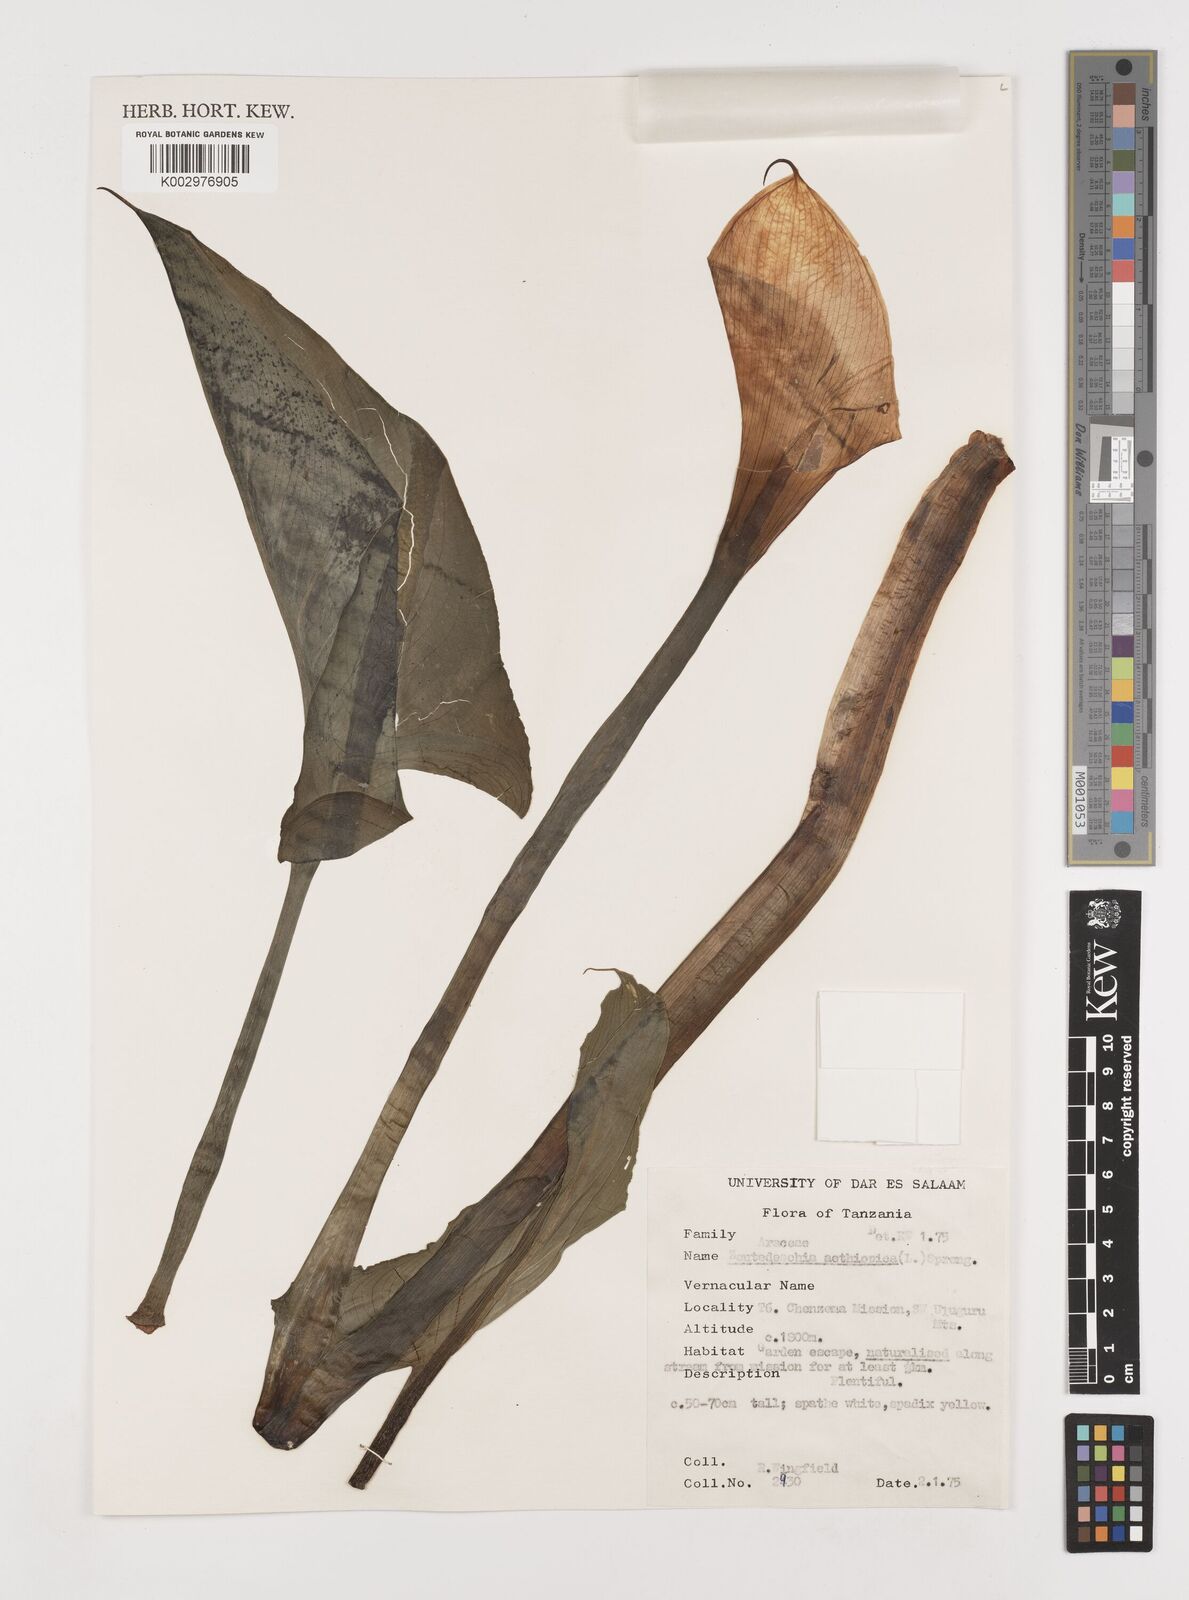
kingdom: Plantae
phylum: Tracheophyta
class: Liliopsida
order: Alismatales
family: Araceae
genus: Zantedeschia
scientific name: Zantedeschia aethiopica
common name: Altar-lily
